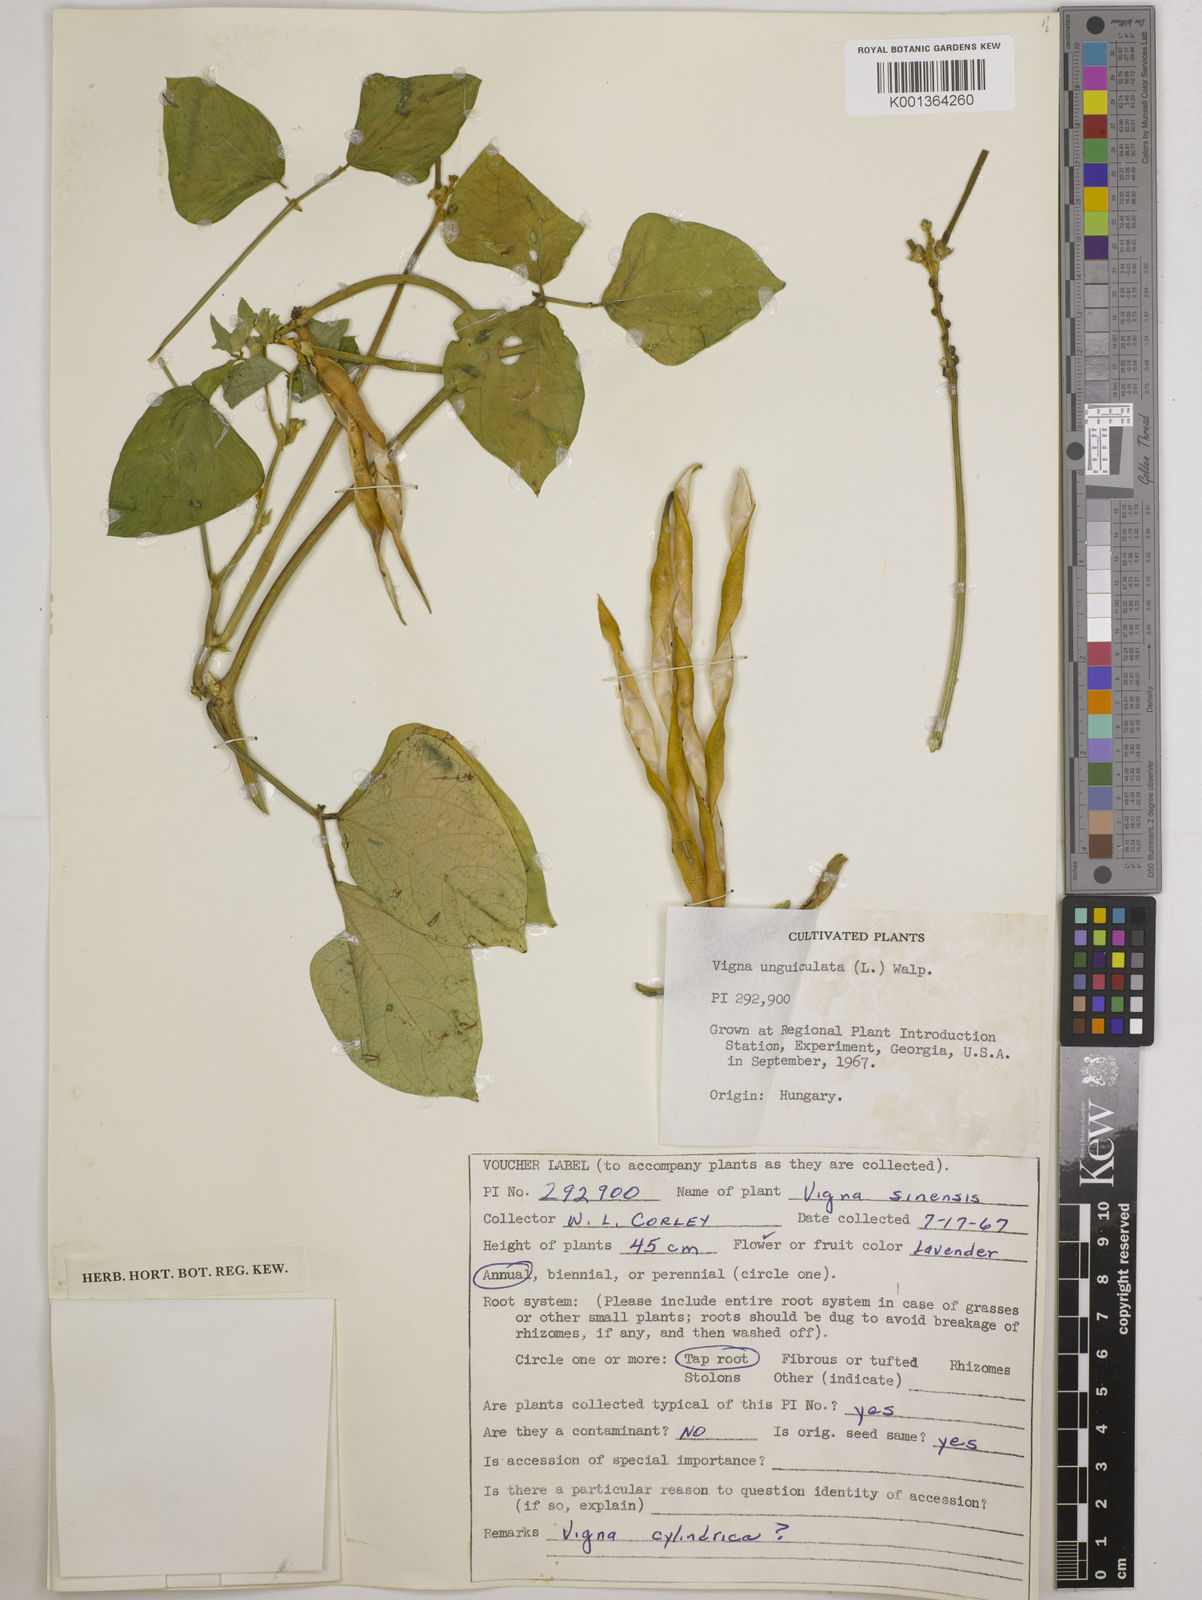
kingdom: Plantae
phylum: Tracheophyta
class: Magnoliopsida
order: Fabales
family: Fabaceae
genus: Vigna
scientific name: Vigna
